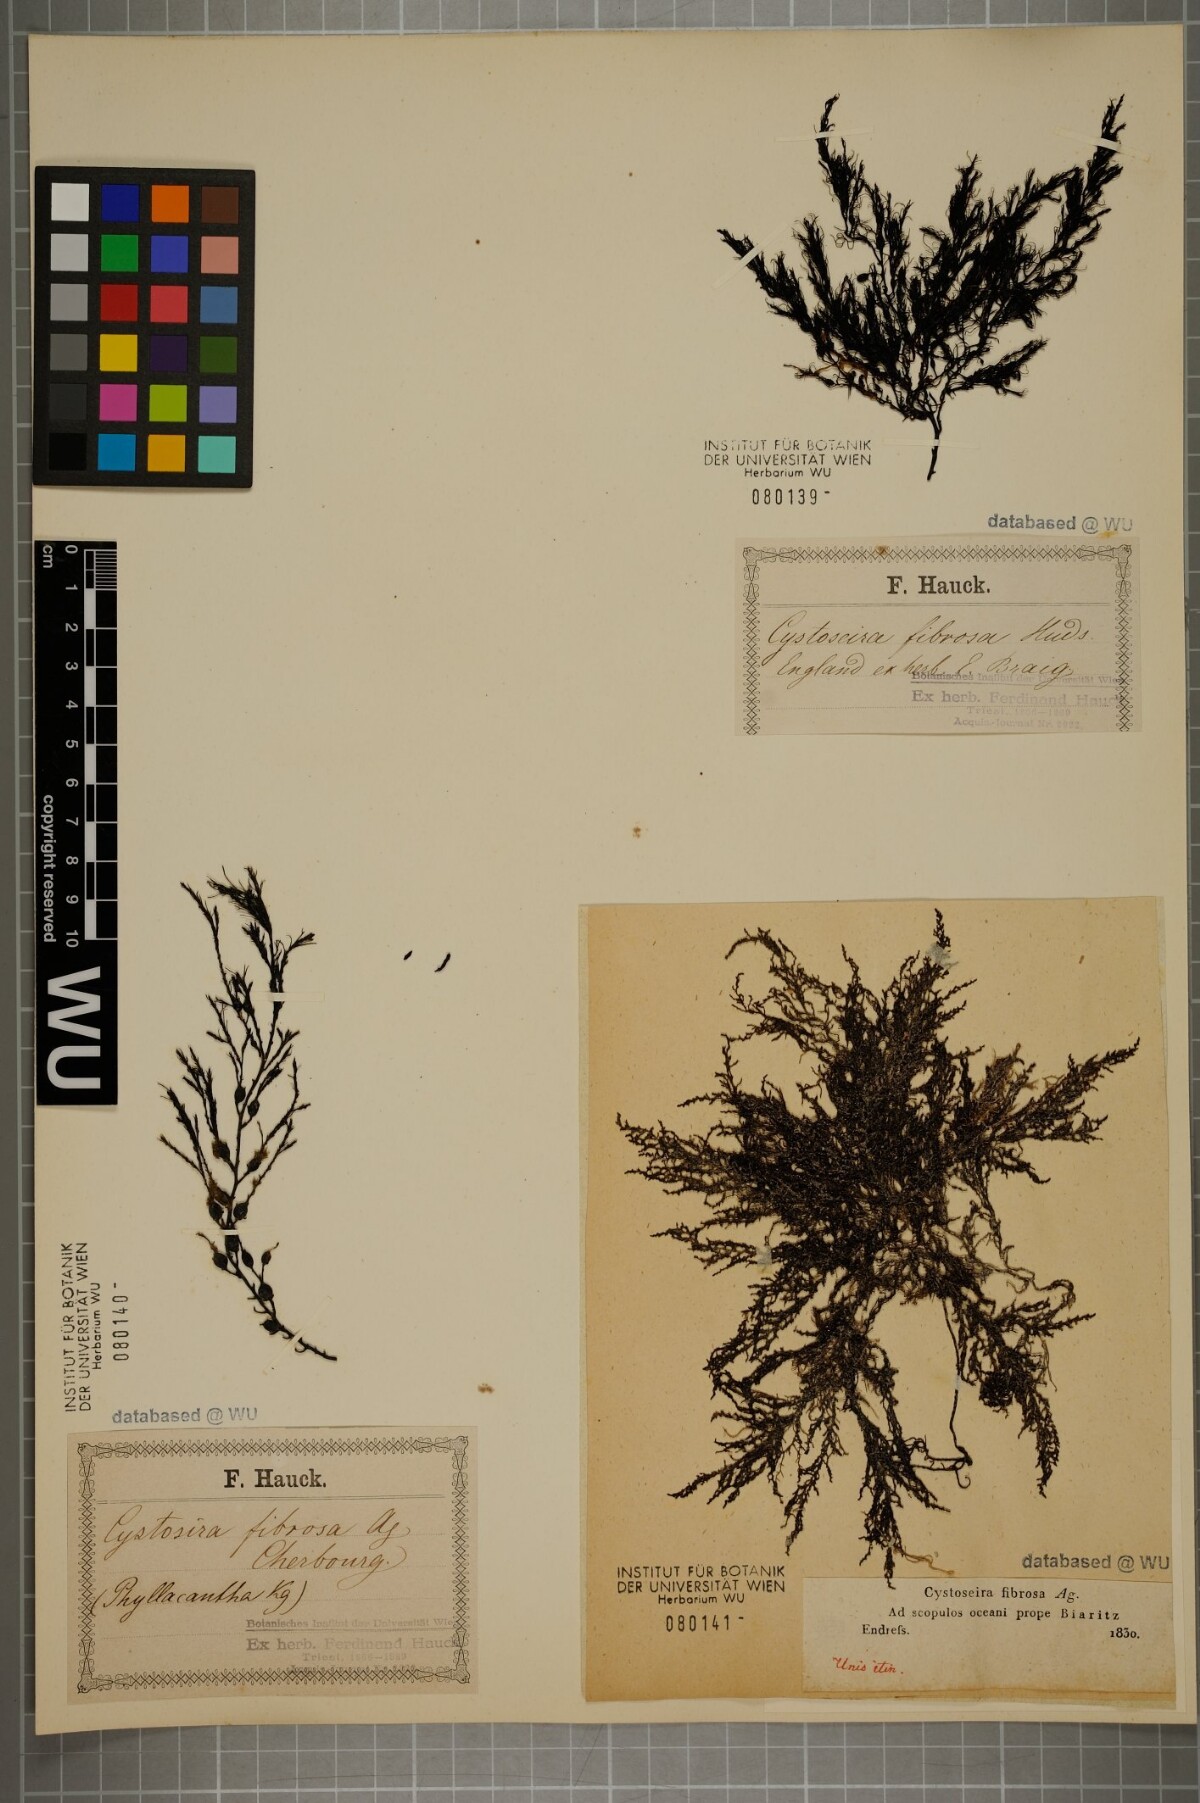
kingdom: Chromista
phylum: Ochrophyta
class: Phaeophyceae
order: Fucales
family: Sargassaceae
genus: Cystoseira
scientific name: Cystoseira Gongolaria baccata
